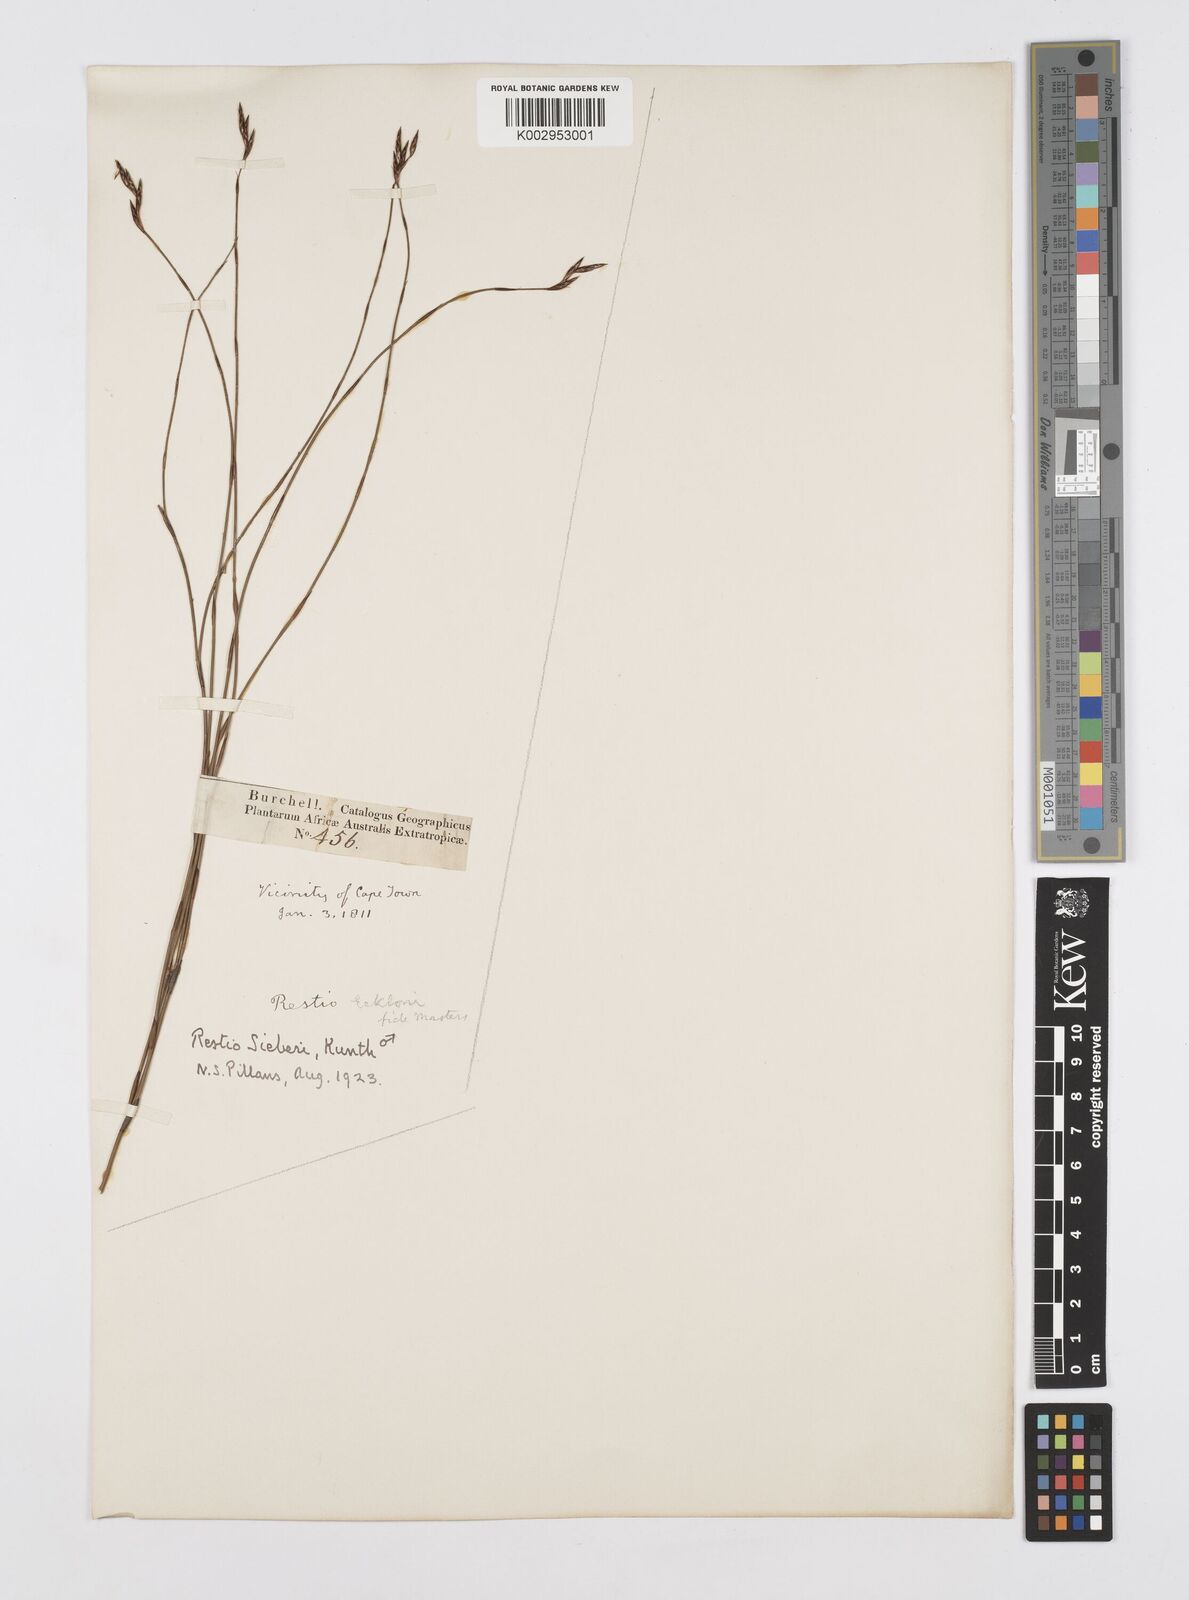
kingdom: Plantae
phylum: Tracheophyta
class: Liliopsida
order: Poales
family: Restionaceae
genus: Restio
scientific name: Restio sieberi
